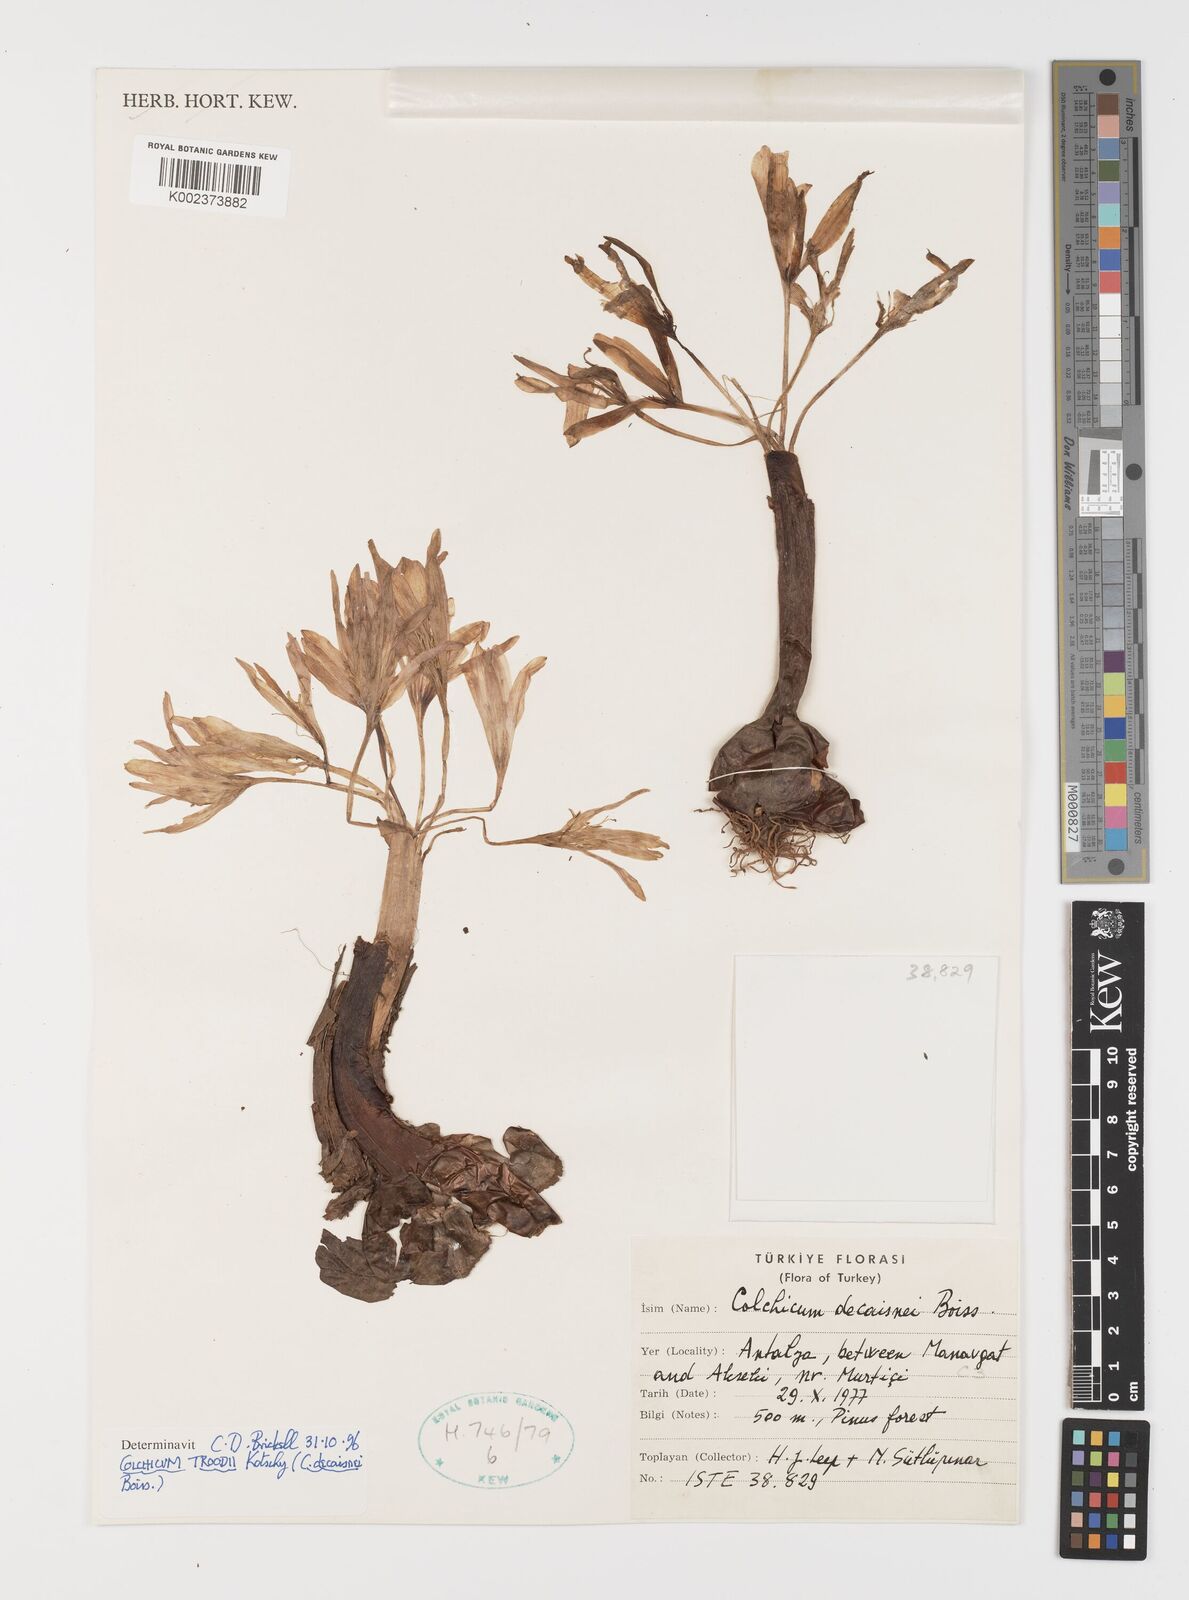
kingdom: Plantae
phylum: Tracheophyta
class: Liliopsida
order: Liliales
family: Colchicaceae
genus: Colchicum
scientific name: Colchicum decaisnei
